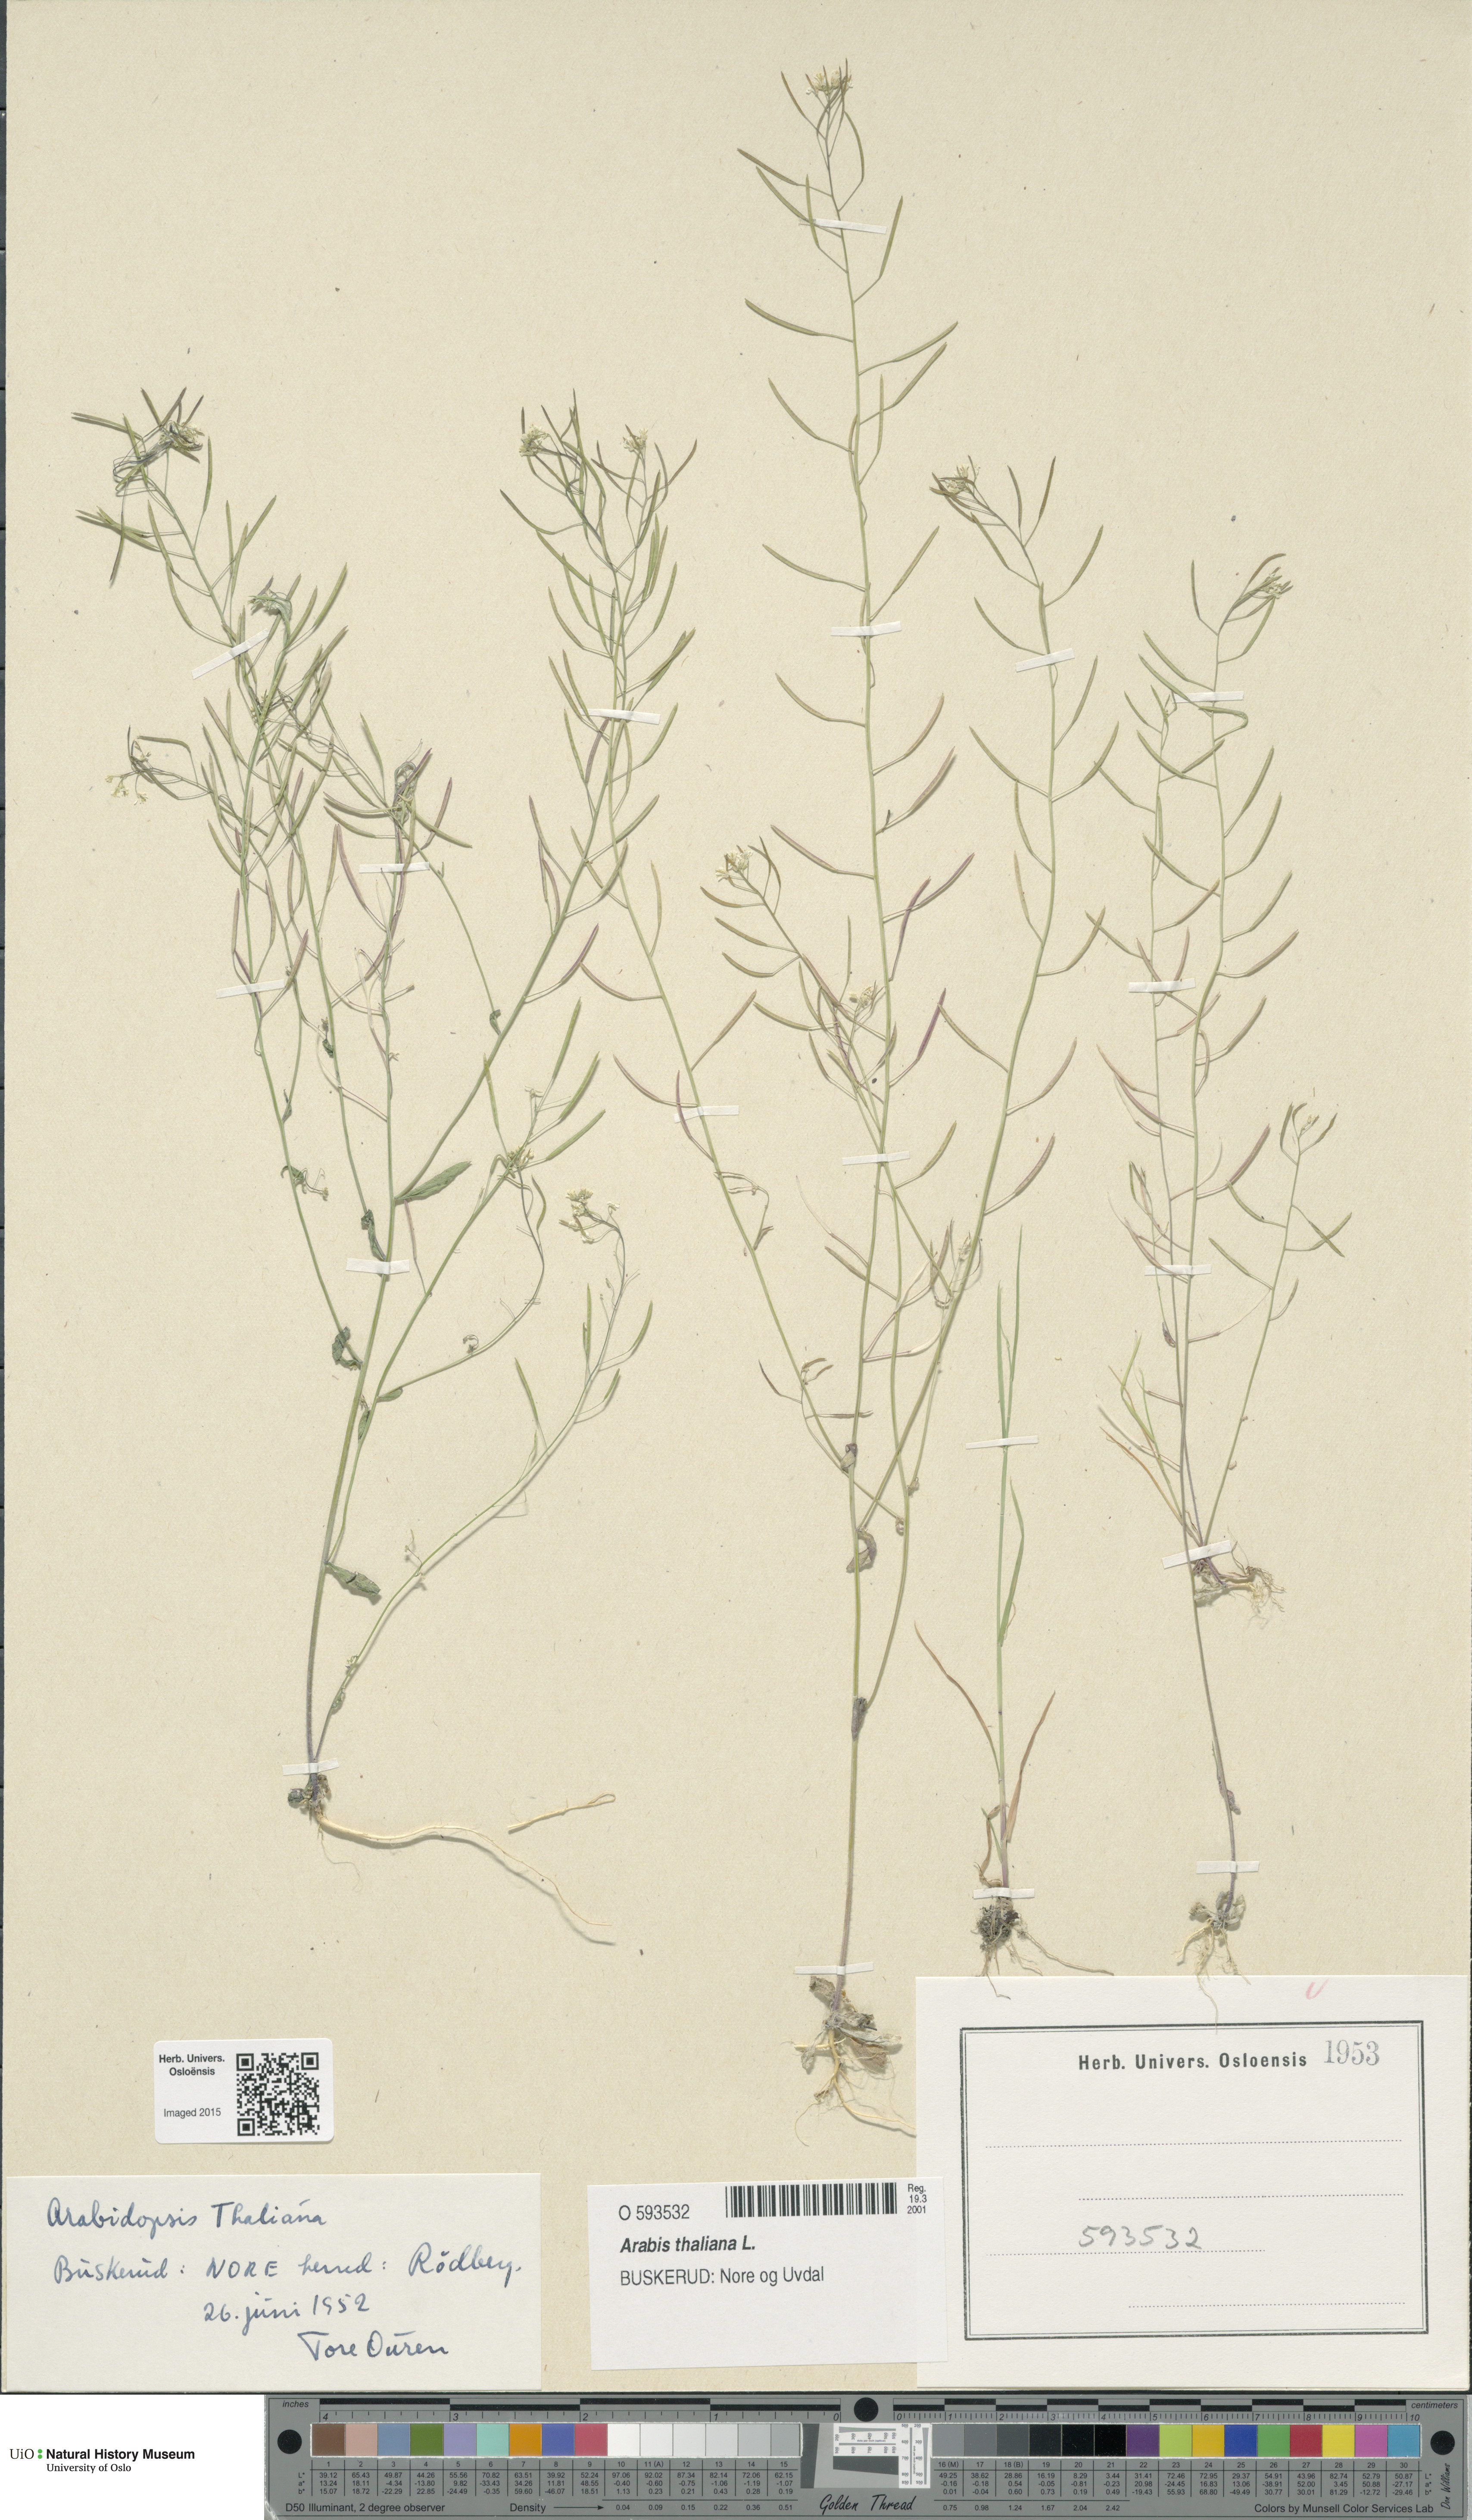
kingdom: Plantae
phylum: Tracheophyta
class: Magnoliopsida
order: Brassicales
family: Brassicaceae
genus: Arabidopsis
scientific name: Arabidopsis thaliana
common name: Thale cress
